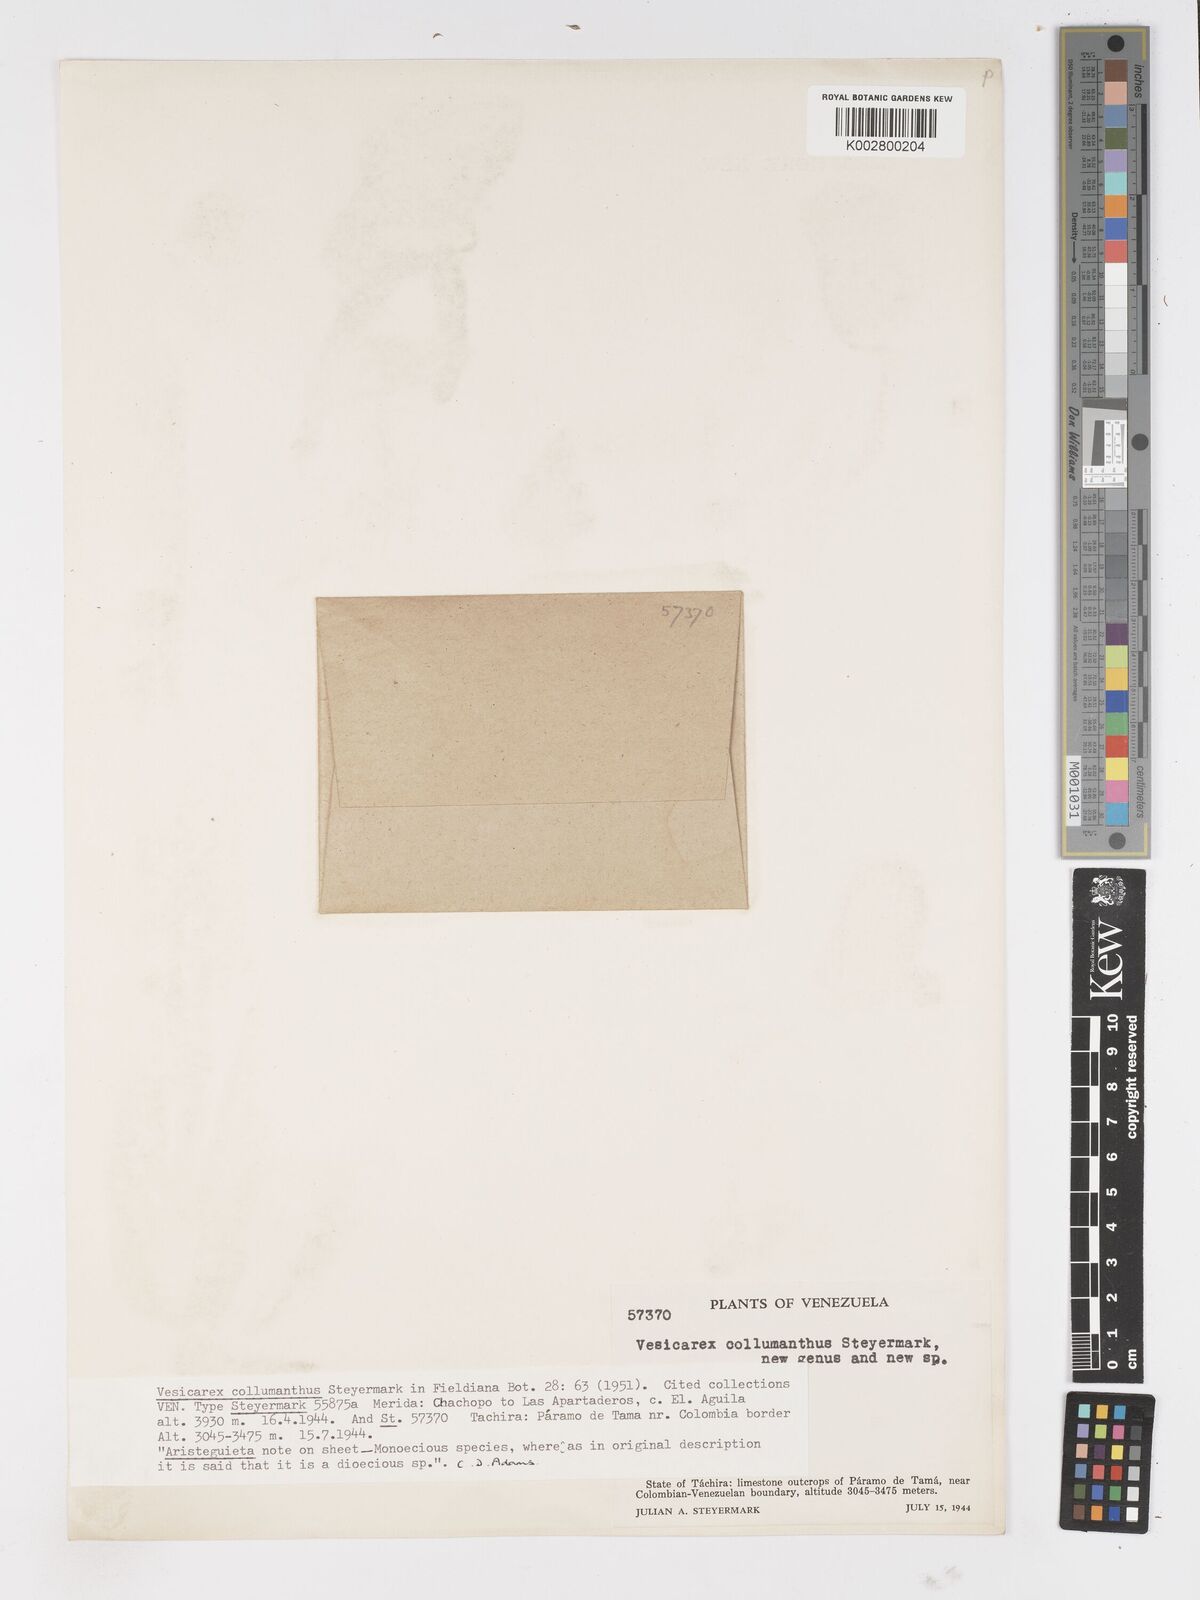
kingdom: Plantae
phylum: Tracheophyta
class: Liliopsida
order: Poales
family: Cyperaceae
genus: Carex
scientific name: Carex collumanthus
